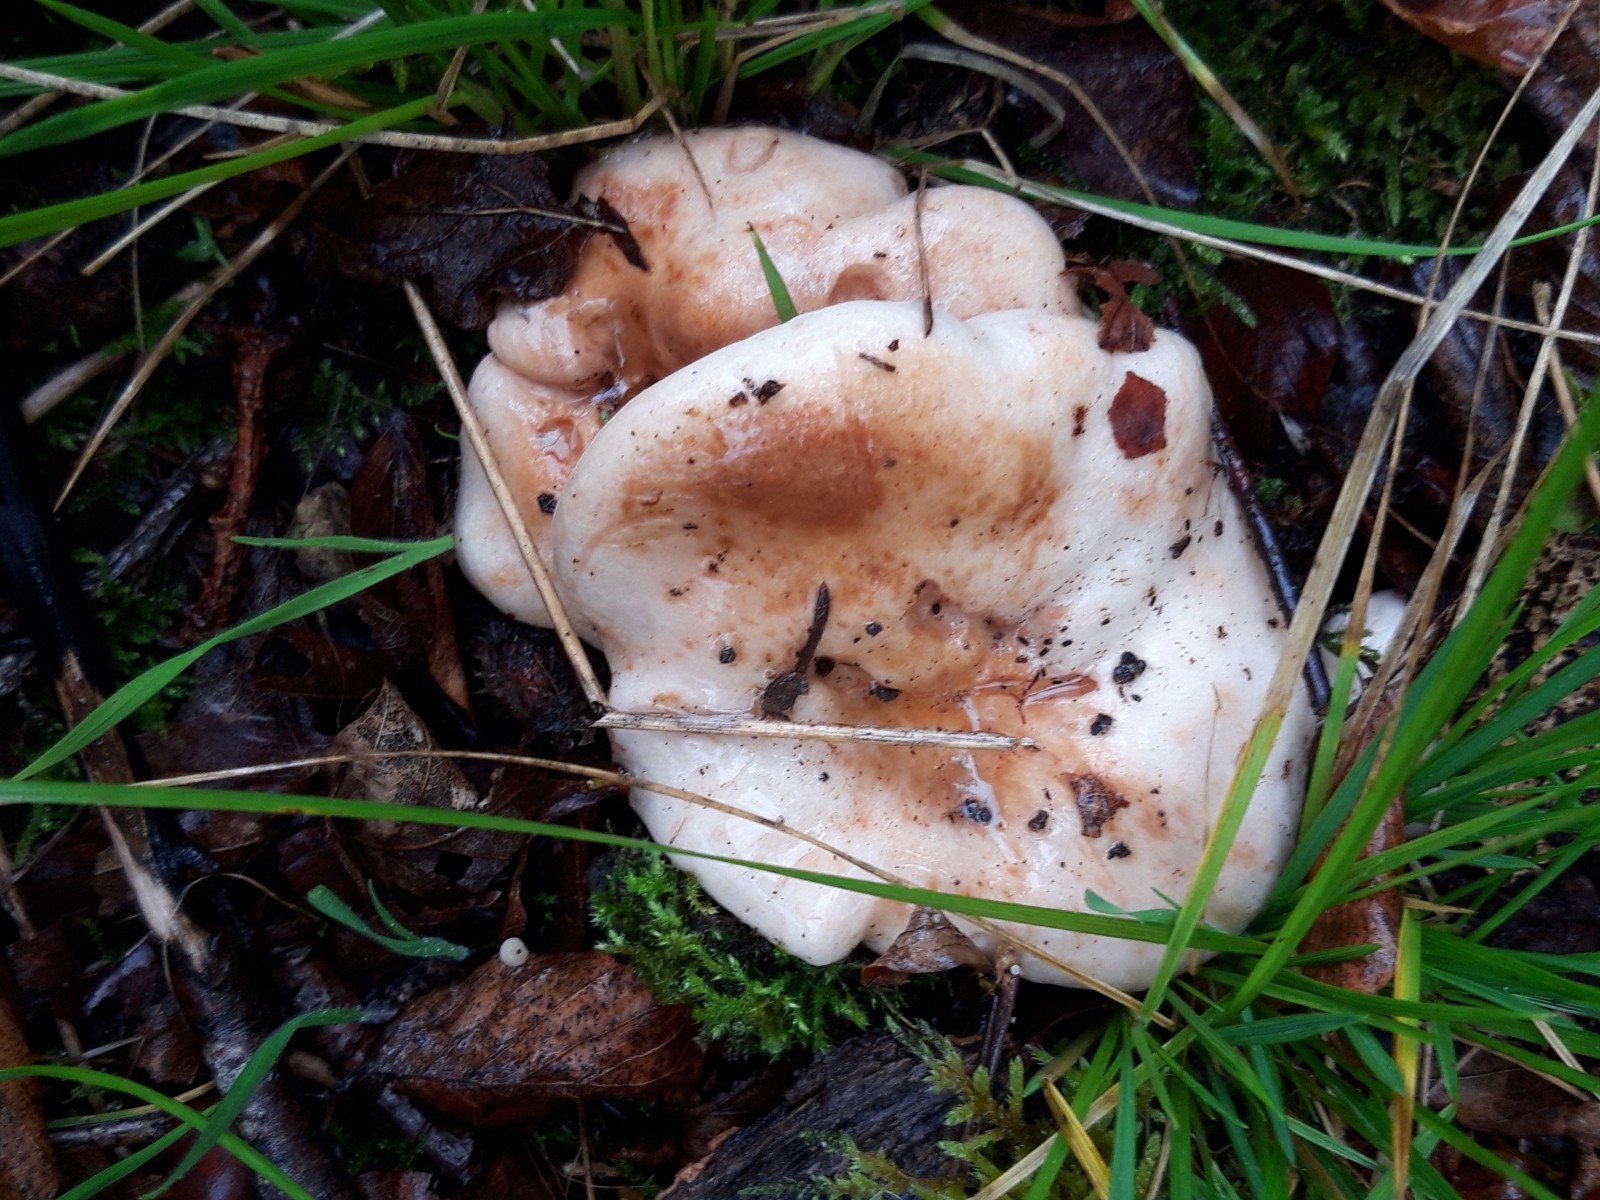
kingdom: Fungi
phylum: Basidiomycota
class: Agaricomycetes
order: Russulales
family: Russulaceae
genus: Lactarius
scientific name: Lactarius pallidus
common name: bleg mælkehat
